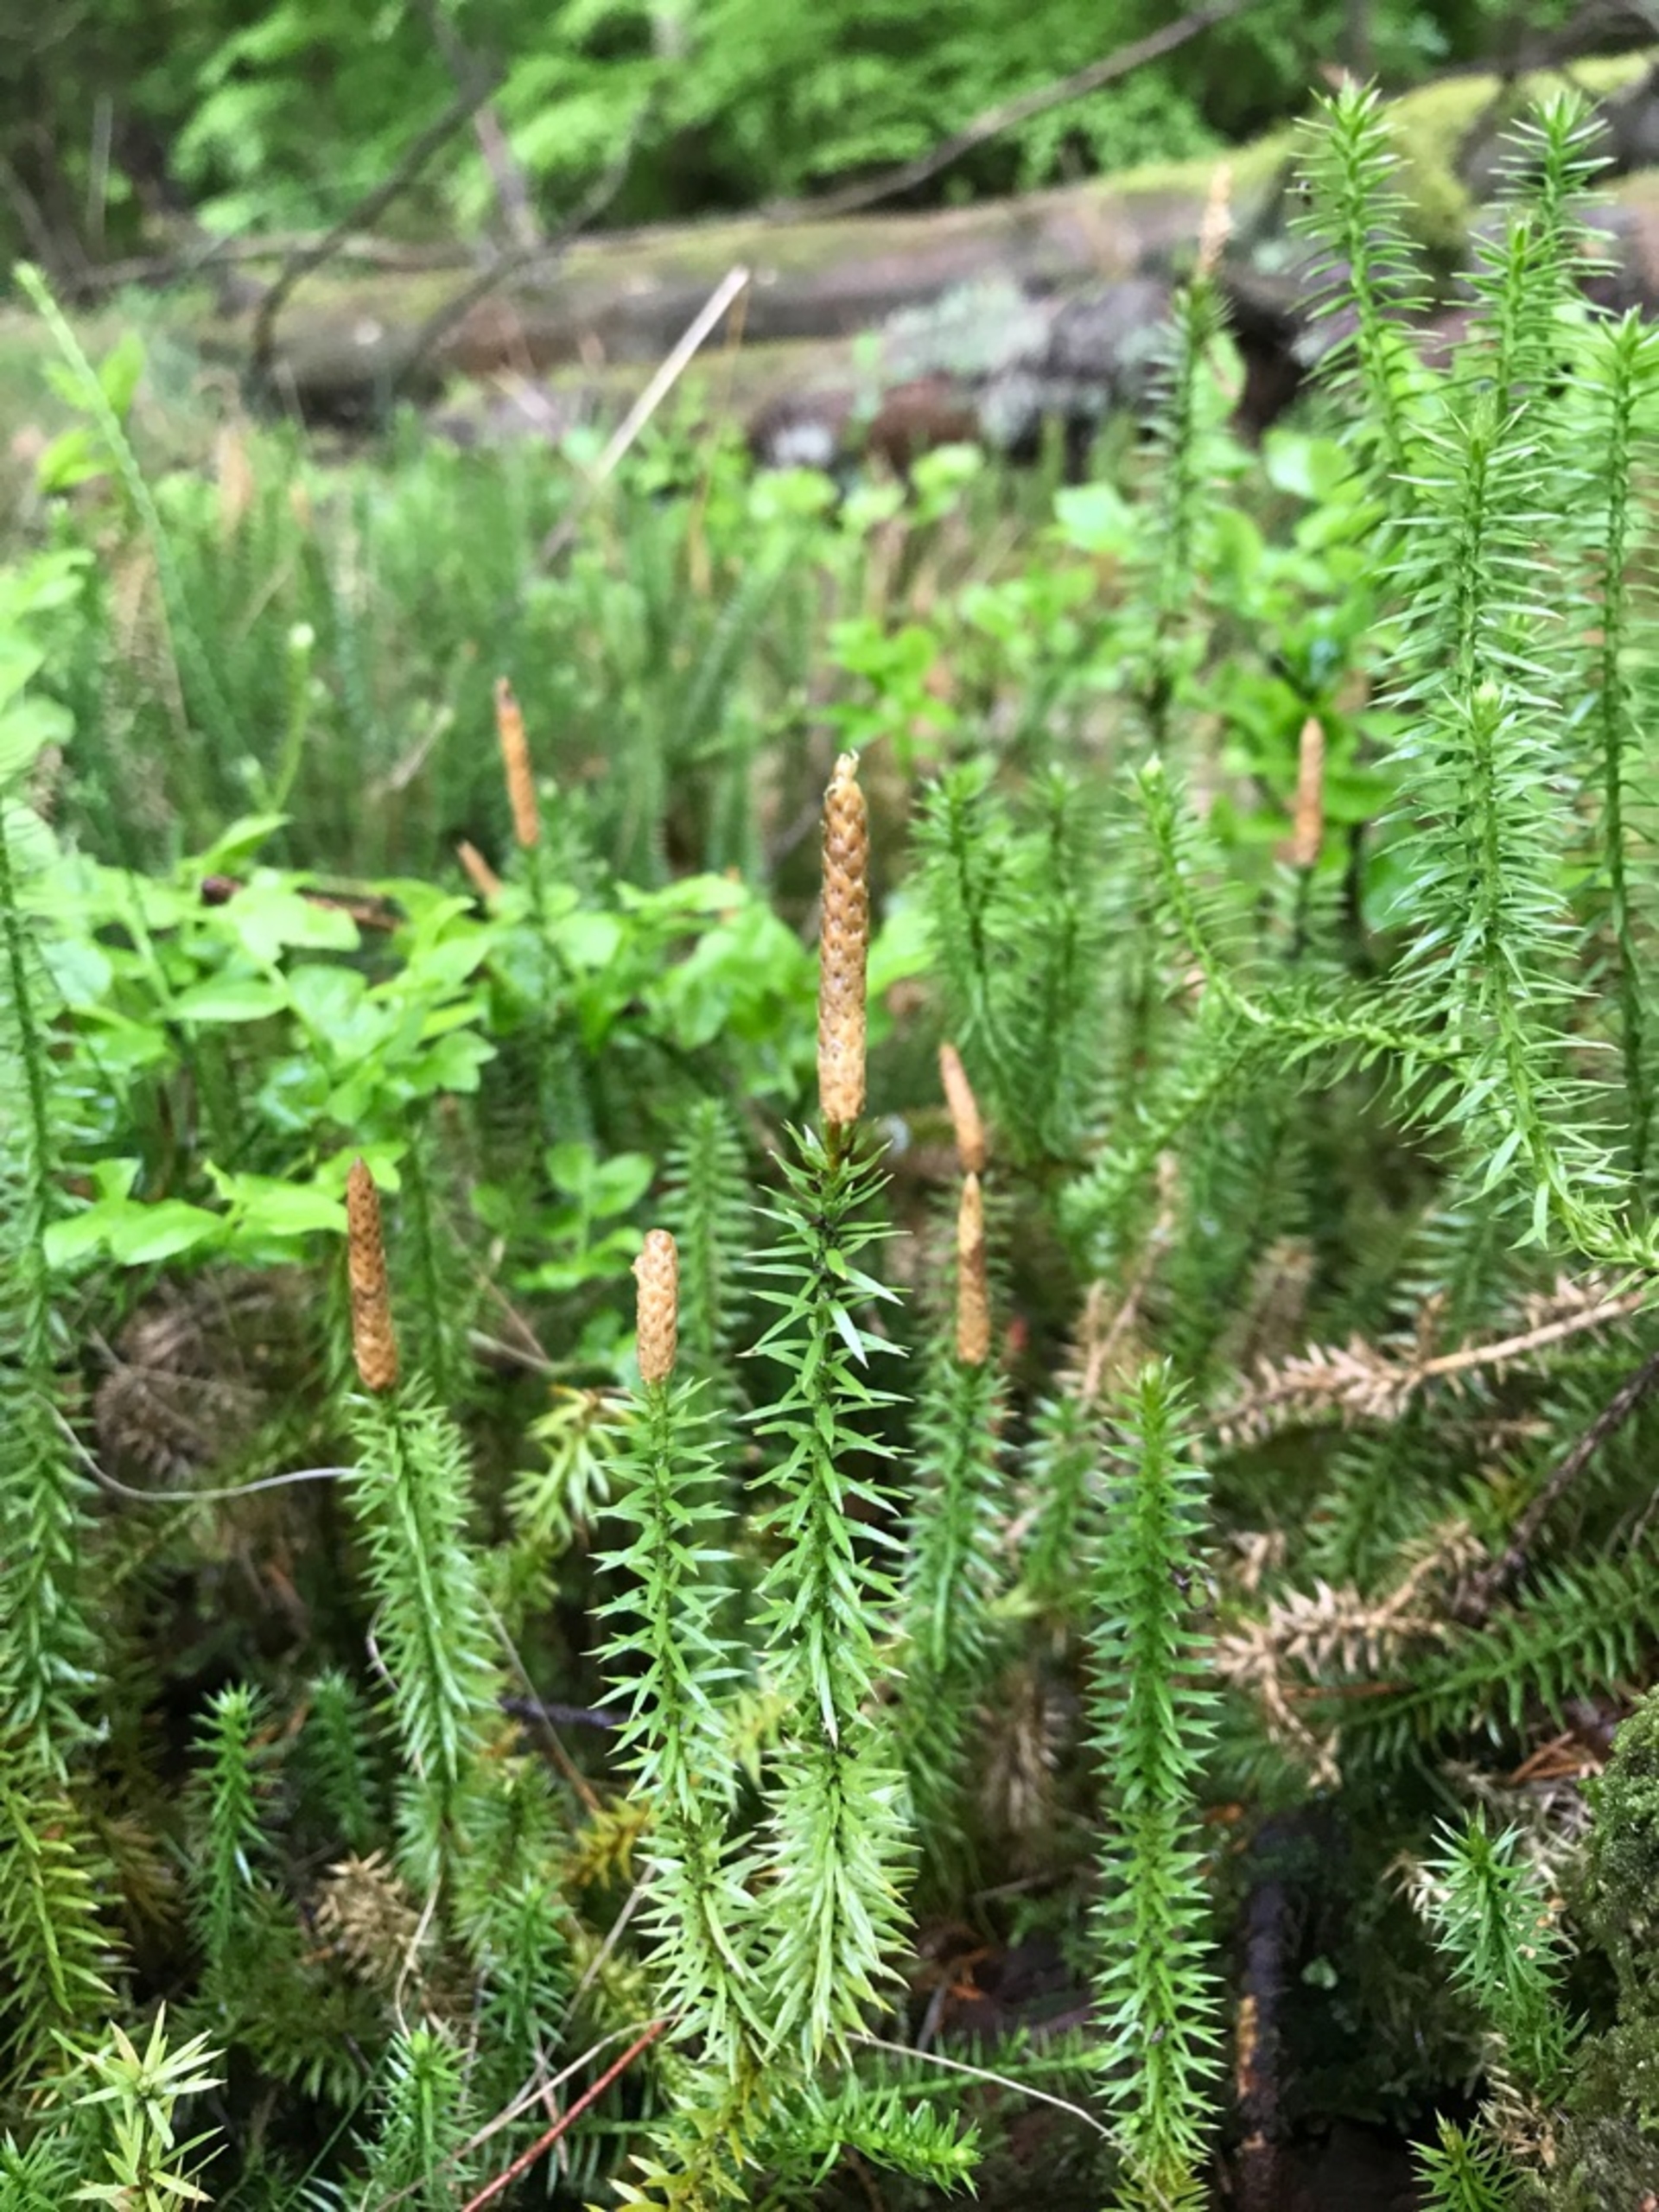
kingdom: Plantae
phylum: Tracheophyta
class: Lycopodiopsida
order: Lycopodiales
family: Lycopodiaceae
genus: Spinulum
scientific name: Spinulum annotinum
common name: Femradet ulvefod
